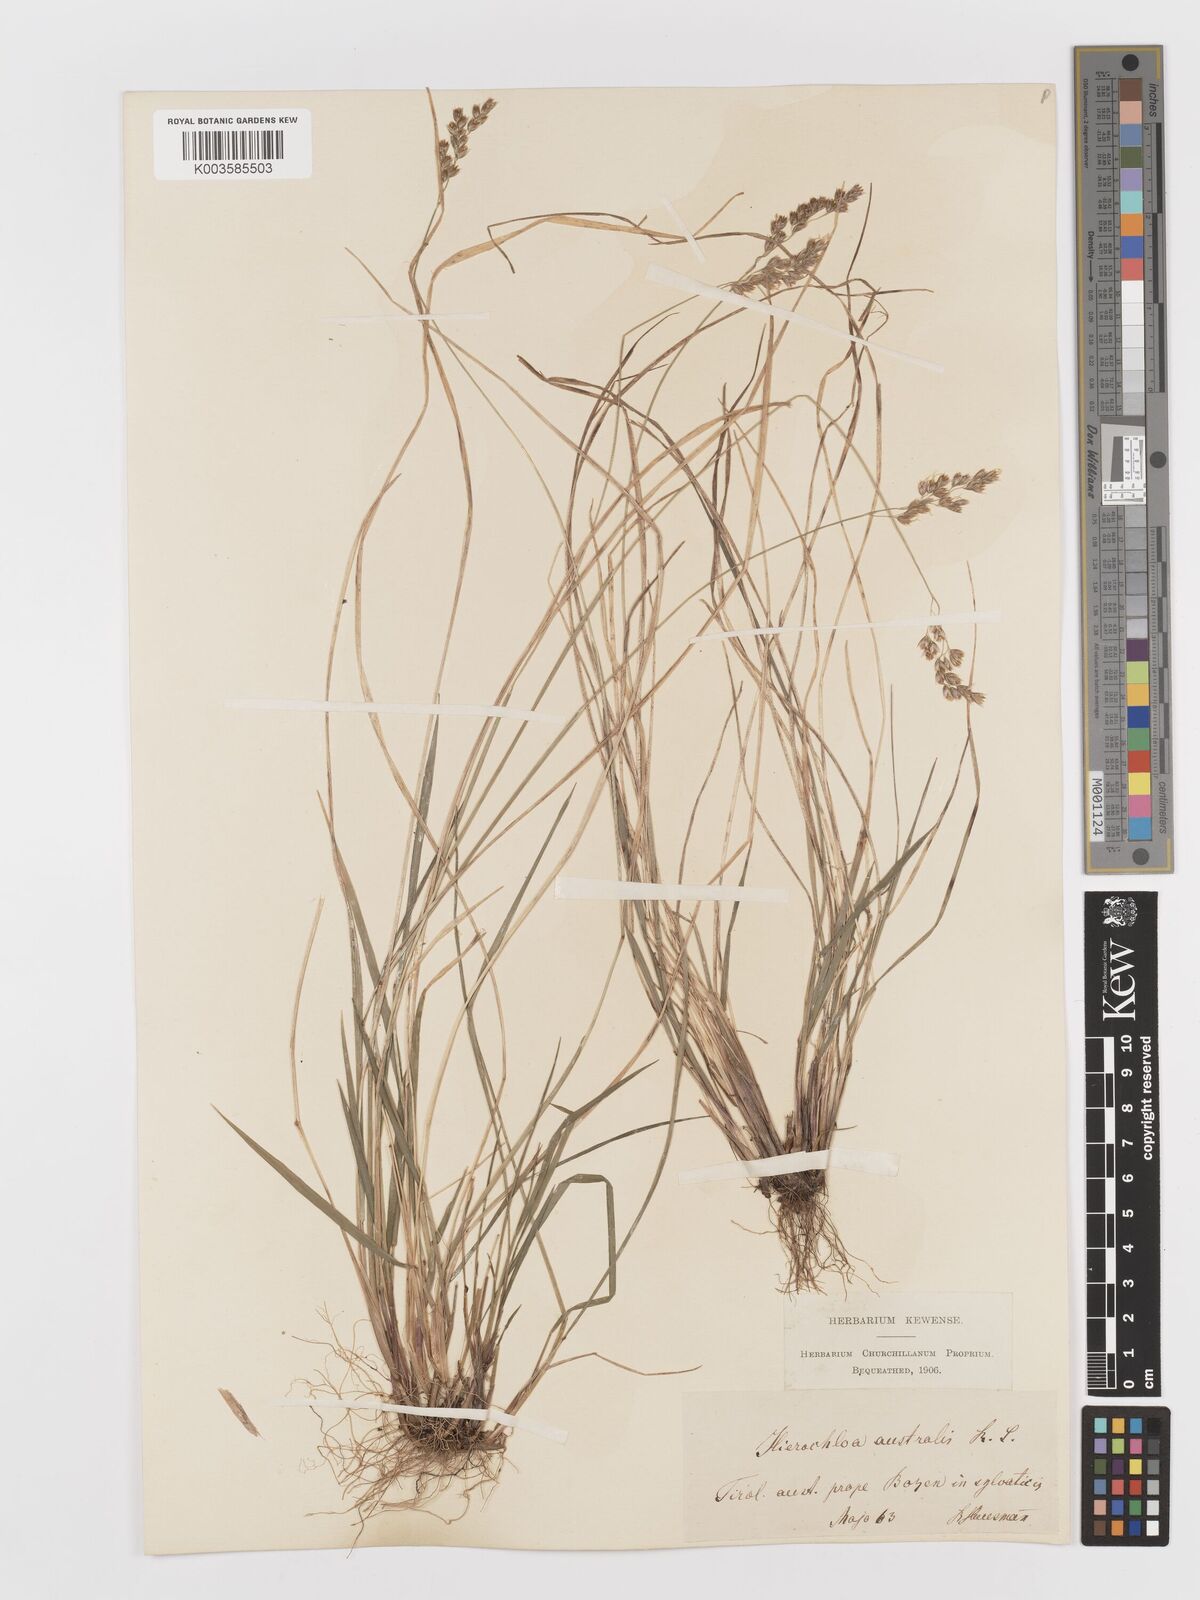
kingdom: Plantae
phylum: Tracheophyta
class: Liliopsida
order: Poales
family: Poaceae
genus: Anthoxanthum
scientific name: Anthoxanthum australe
